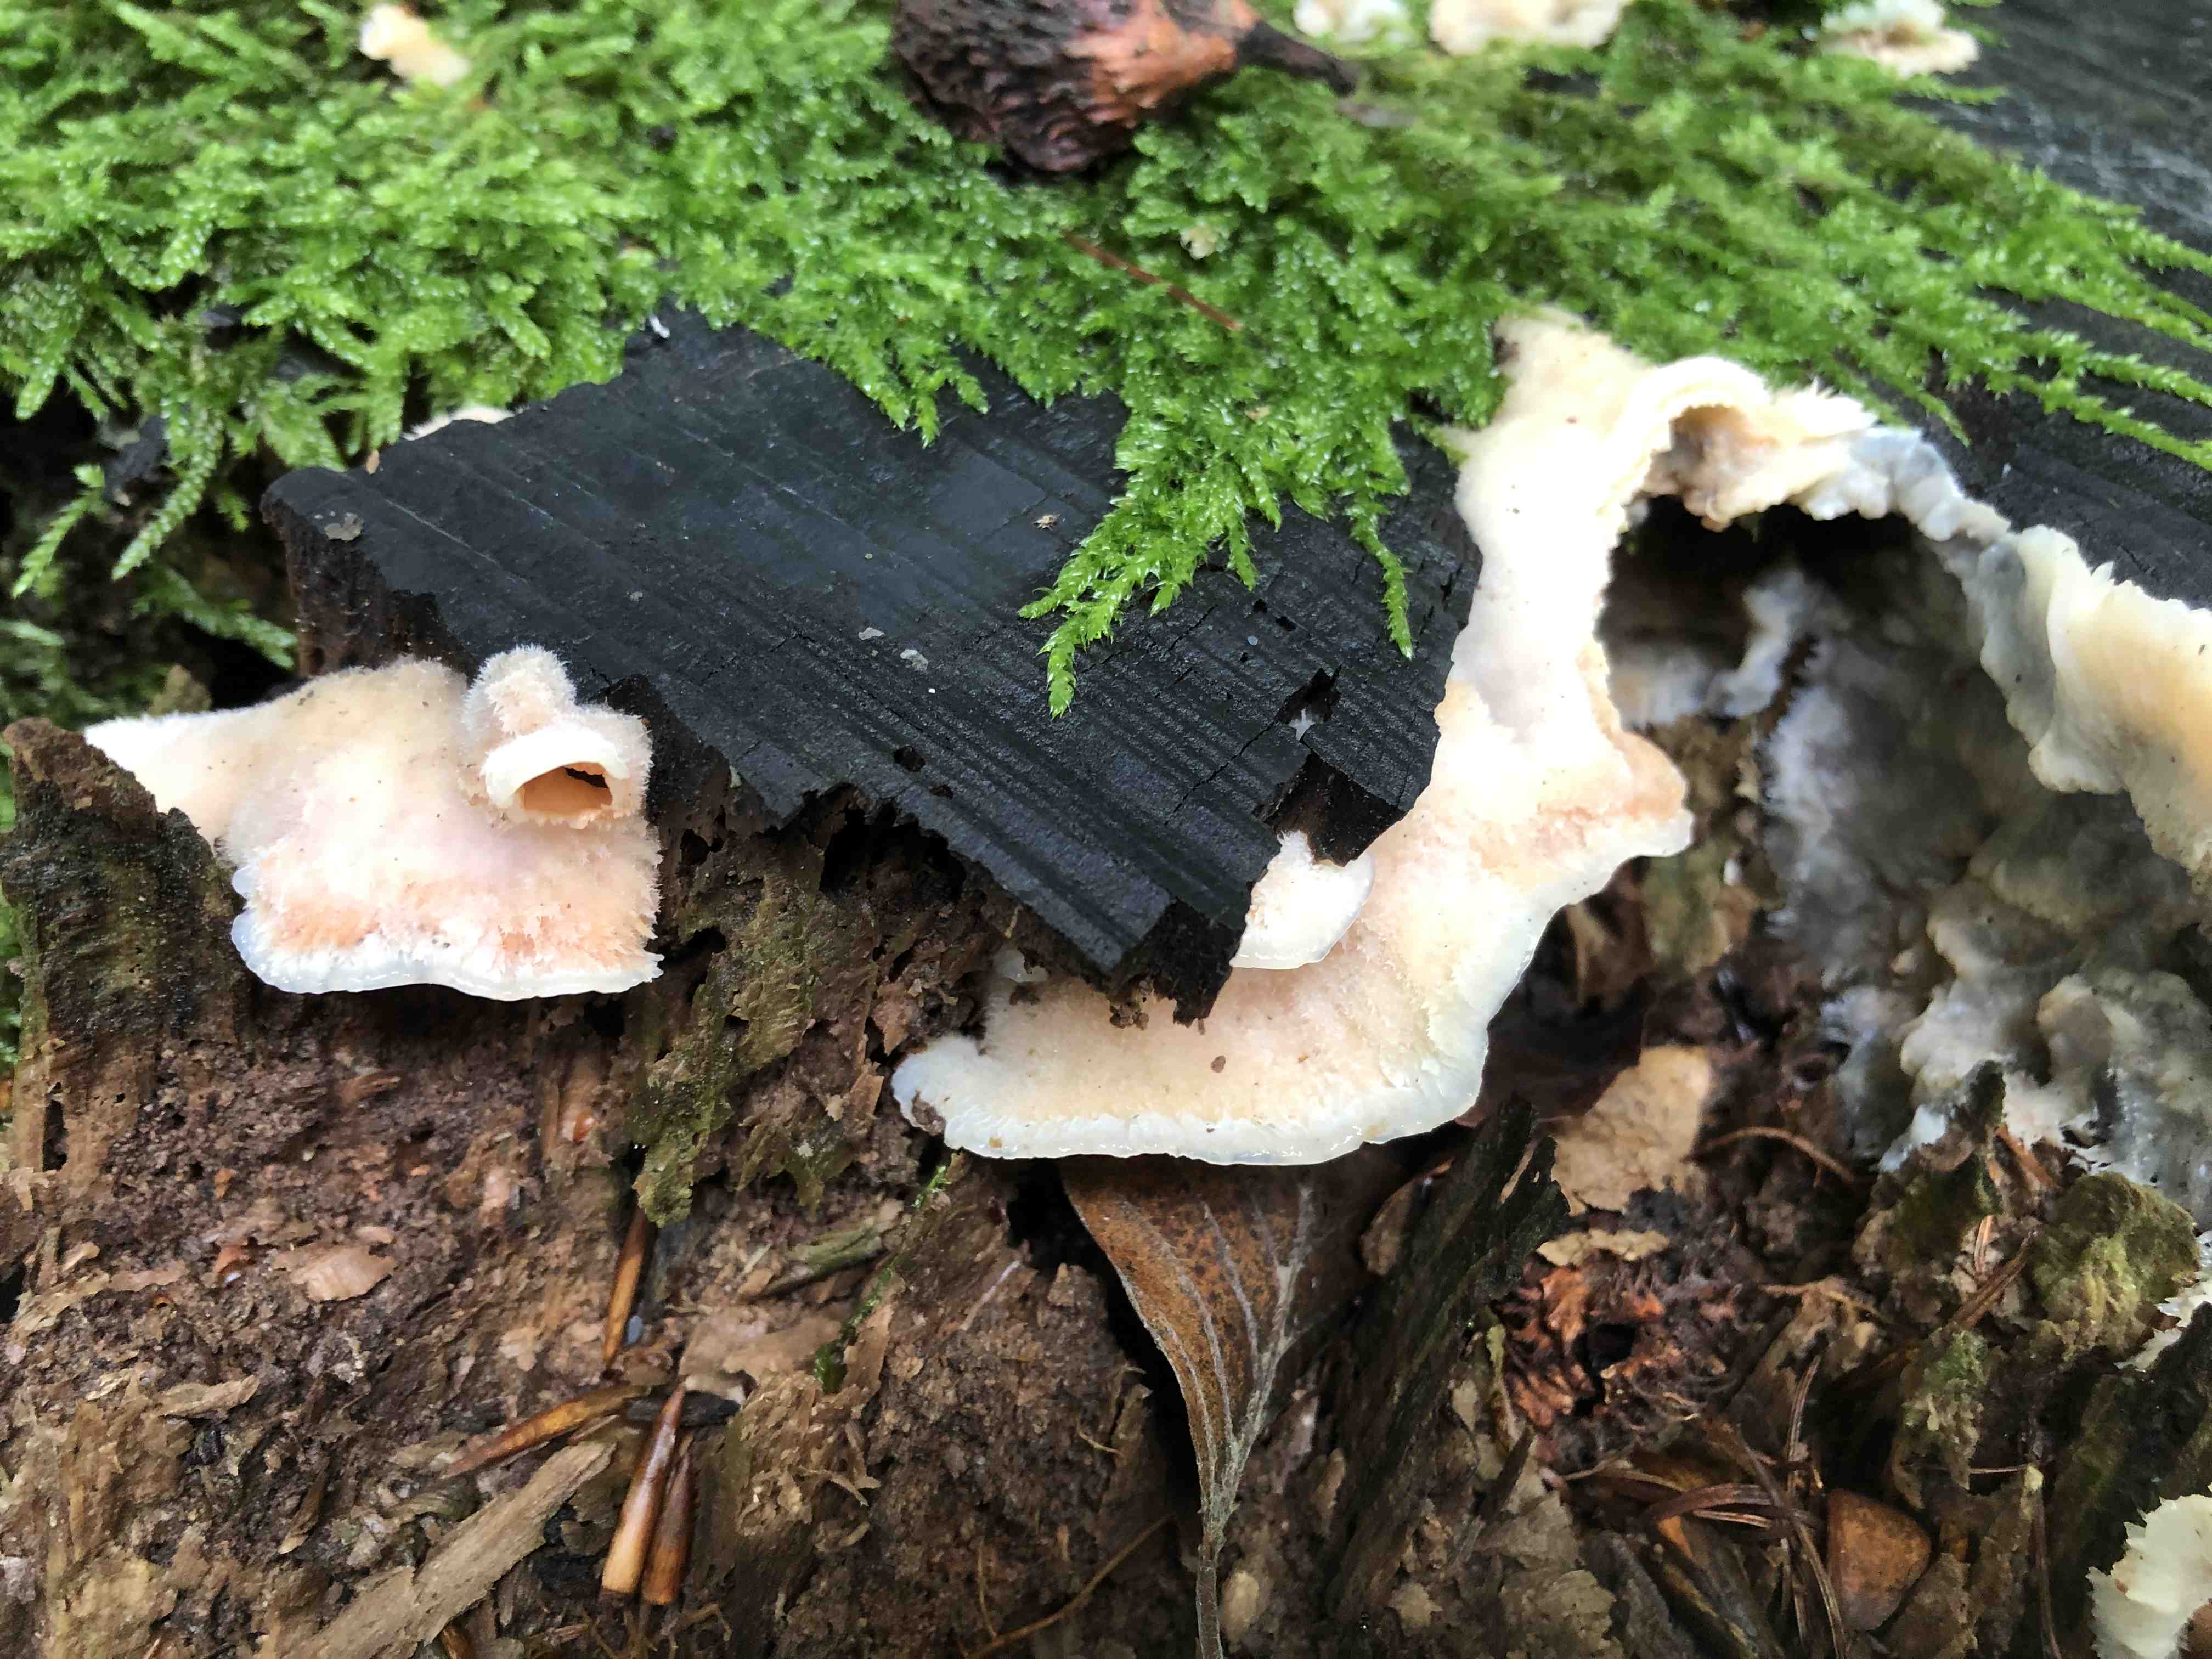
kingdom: Fungi
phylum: Basidiomycota
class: Agaricomycetes
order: Polyporales
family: Meruliaceae
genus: Phlebia
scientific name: Phlebia tremellosa
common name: bævrende åresvamp
